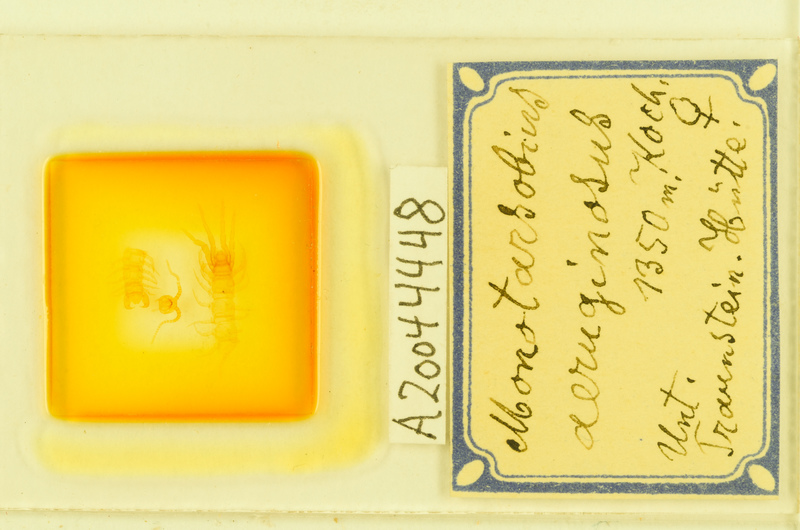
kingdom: Animalia
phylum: Arthropoda
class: Chilopoda
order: Lithobiomorpha
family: Lithobiidae
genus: Monotarsobius
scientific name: Monotarsobius
